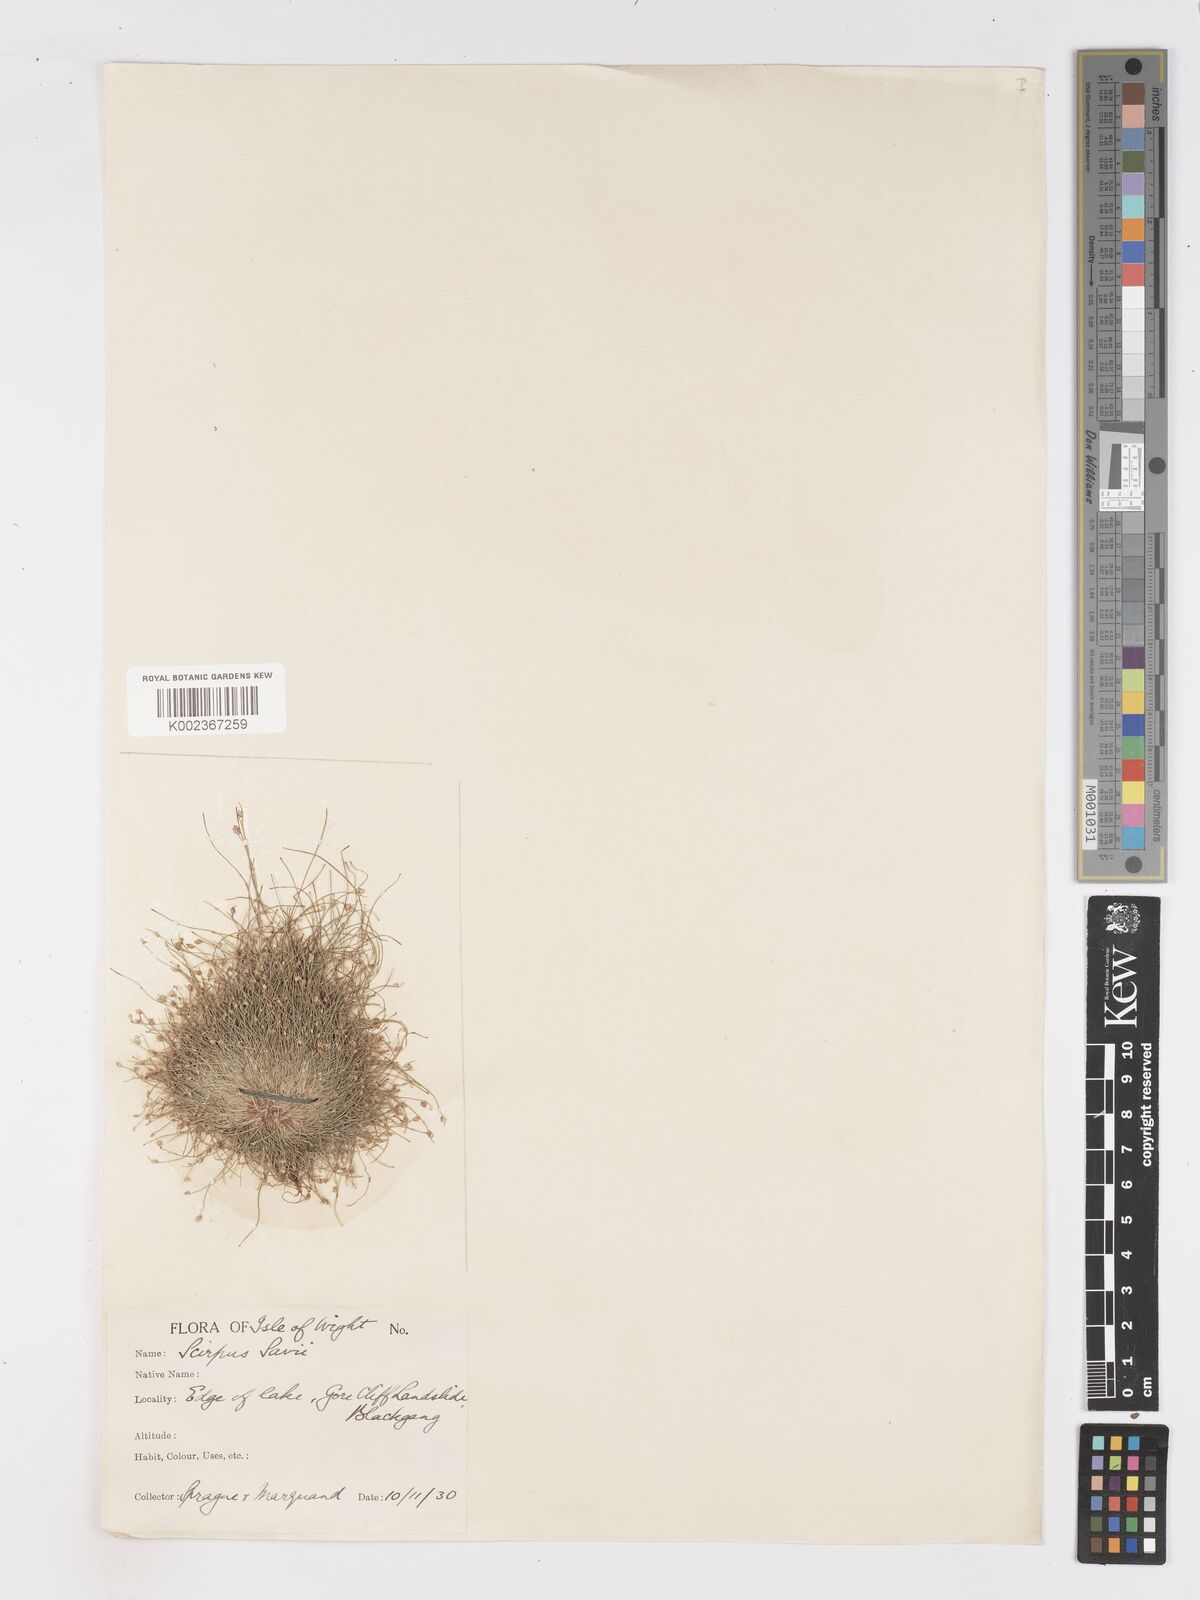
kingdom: Plantae
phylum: Tracheophyta
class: Liliopsida
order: Poales
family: Cyperaceae
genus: Isolepis
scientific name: Isolepis cernua
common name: Slender club-rush
